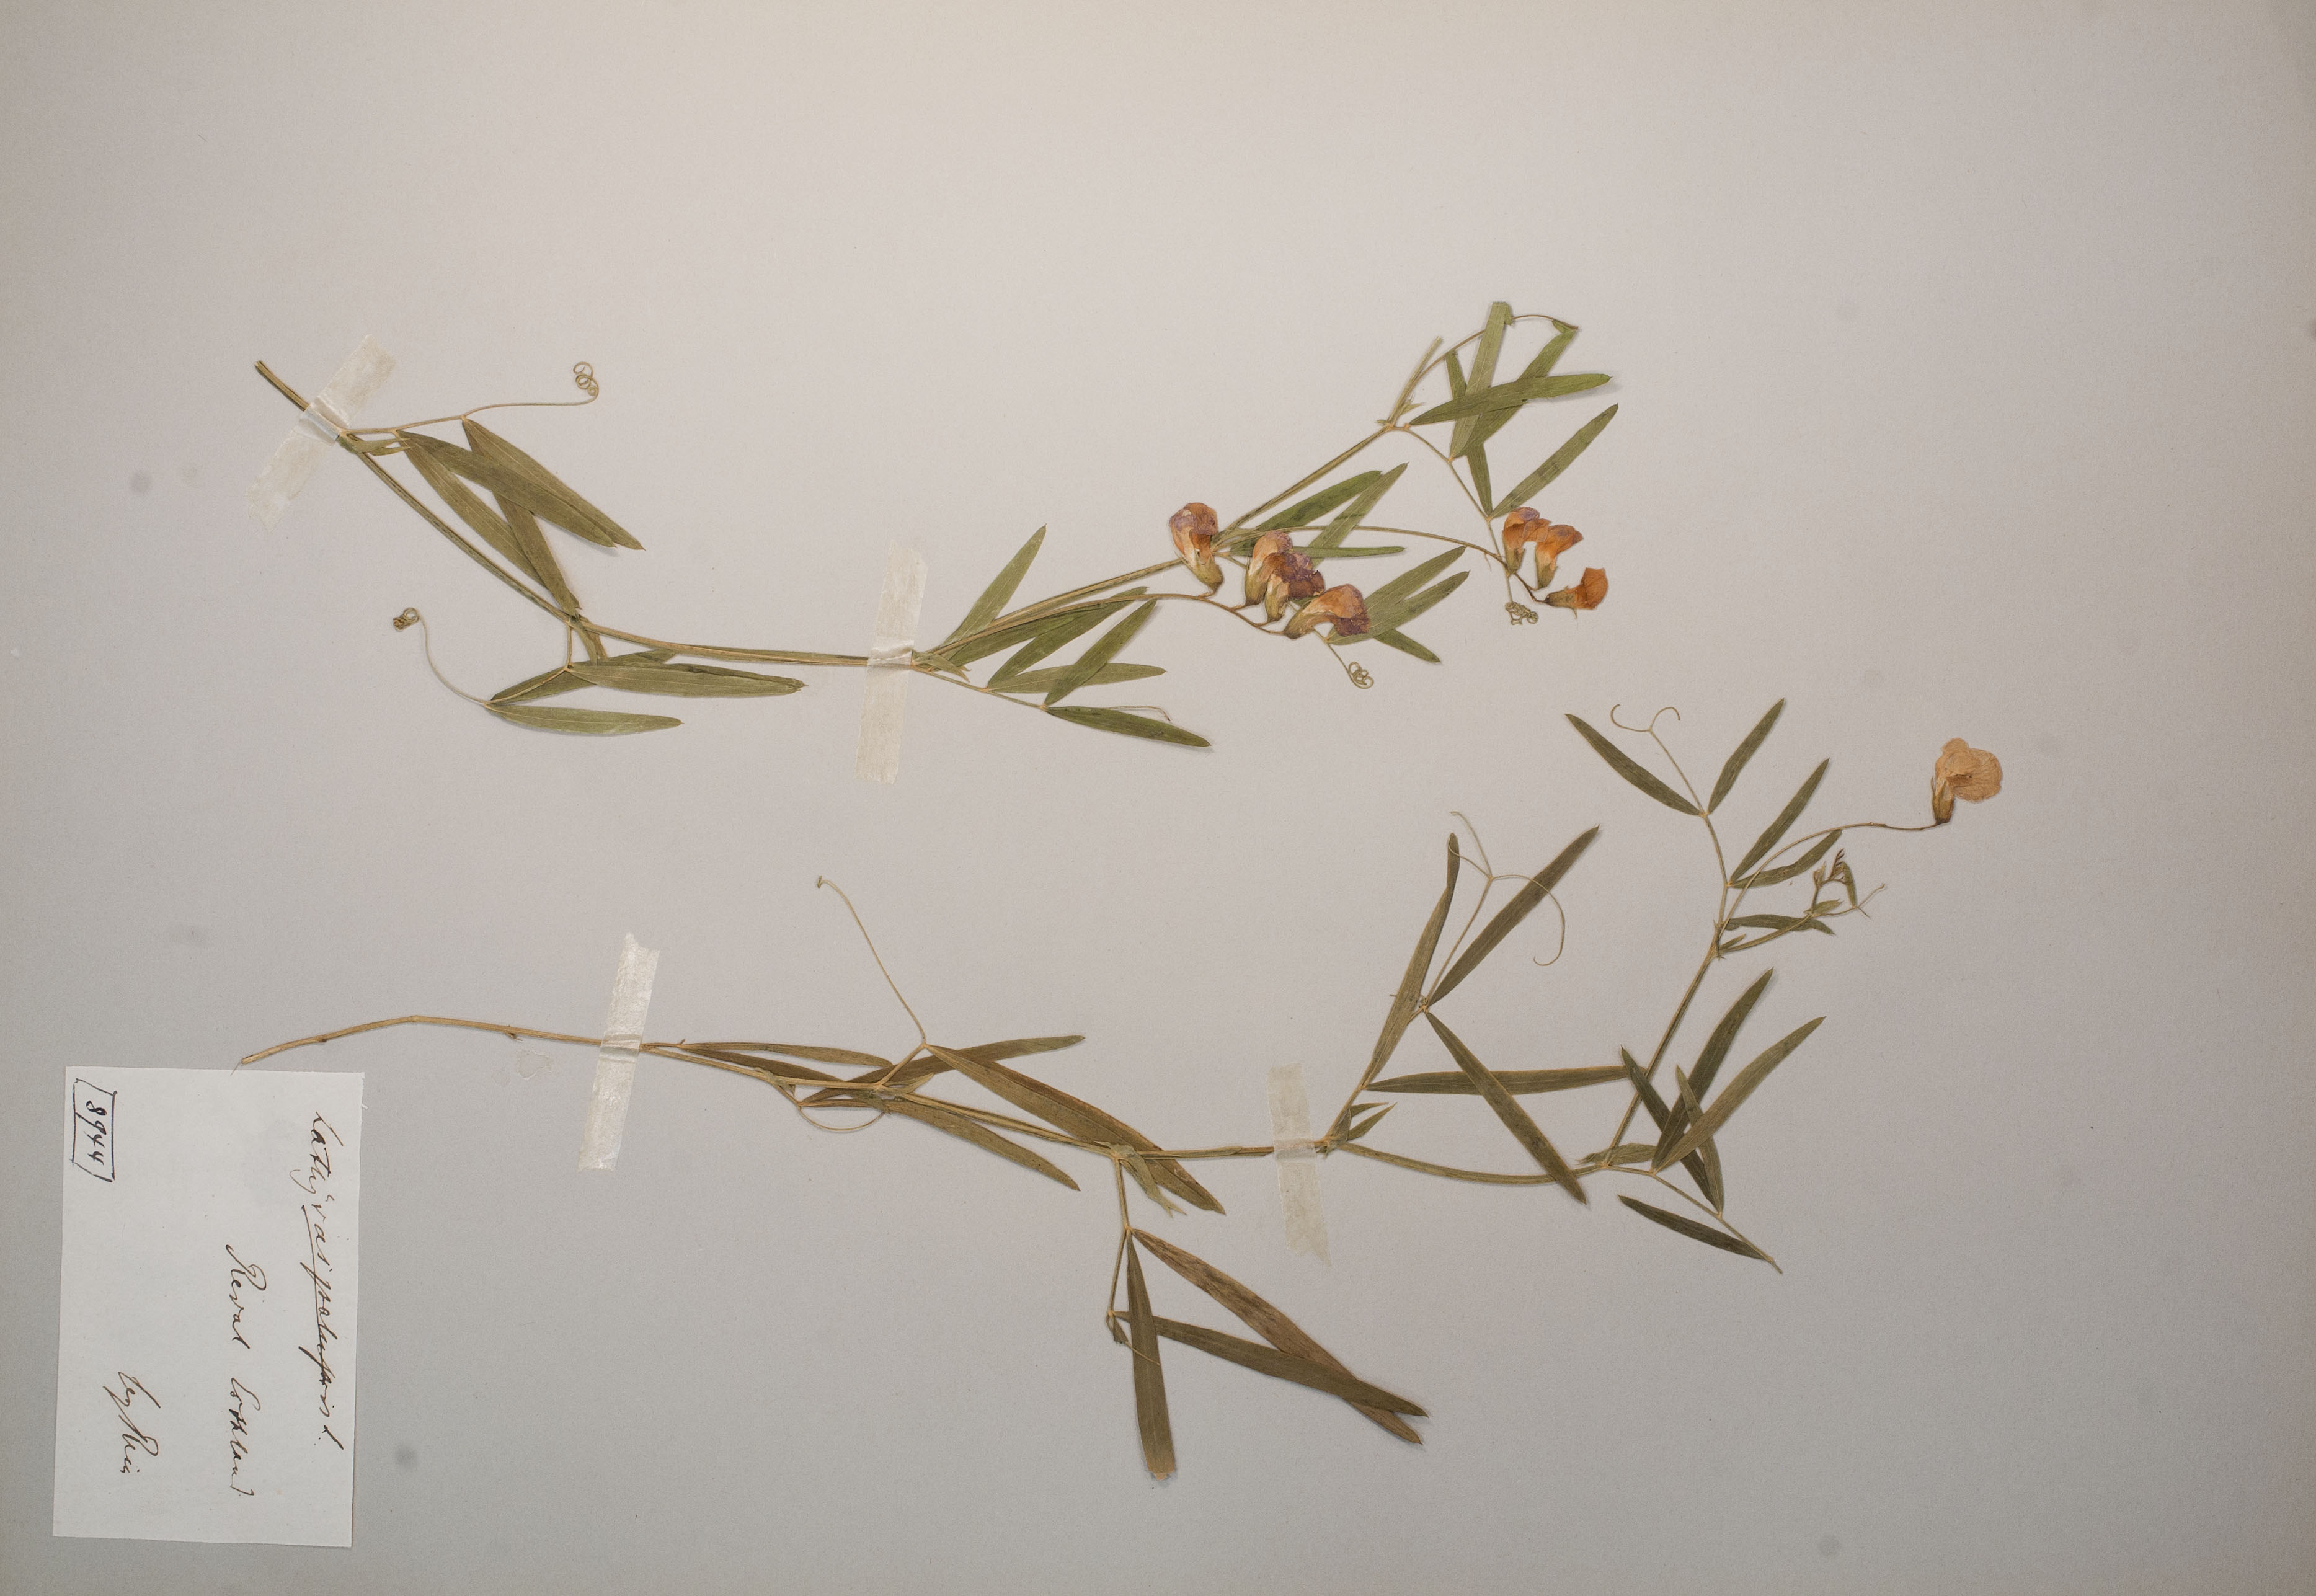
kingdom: Plantae
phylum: Tracheophyta
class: Magnoliopsida
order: Fabales
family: Fabaceae
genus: Lathyrus
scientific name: Lathyrus palustris
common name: Marsh pea
